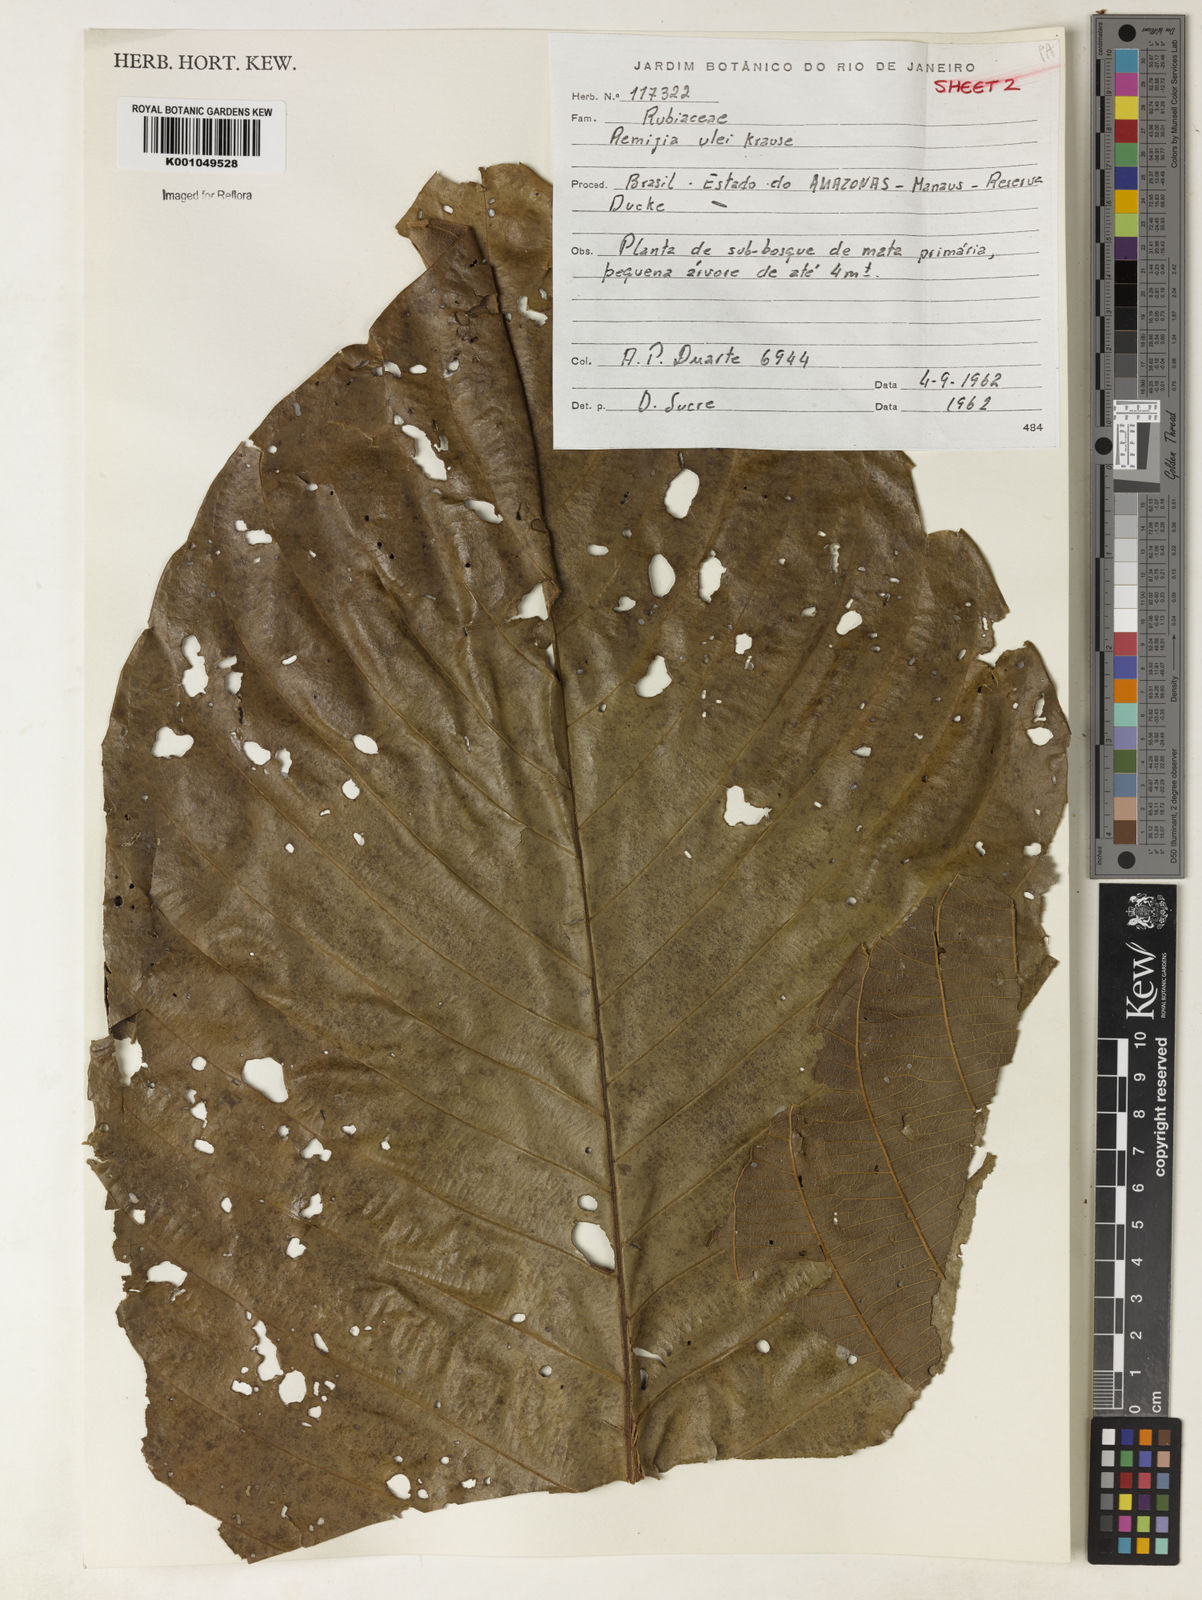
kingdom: Plantae
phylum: Tracheophyta
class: Magnoliopsida
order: Gentianales
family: Rubiaceae
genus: Remijia
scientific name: Remijia ulei
